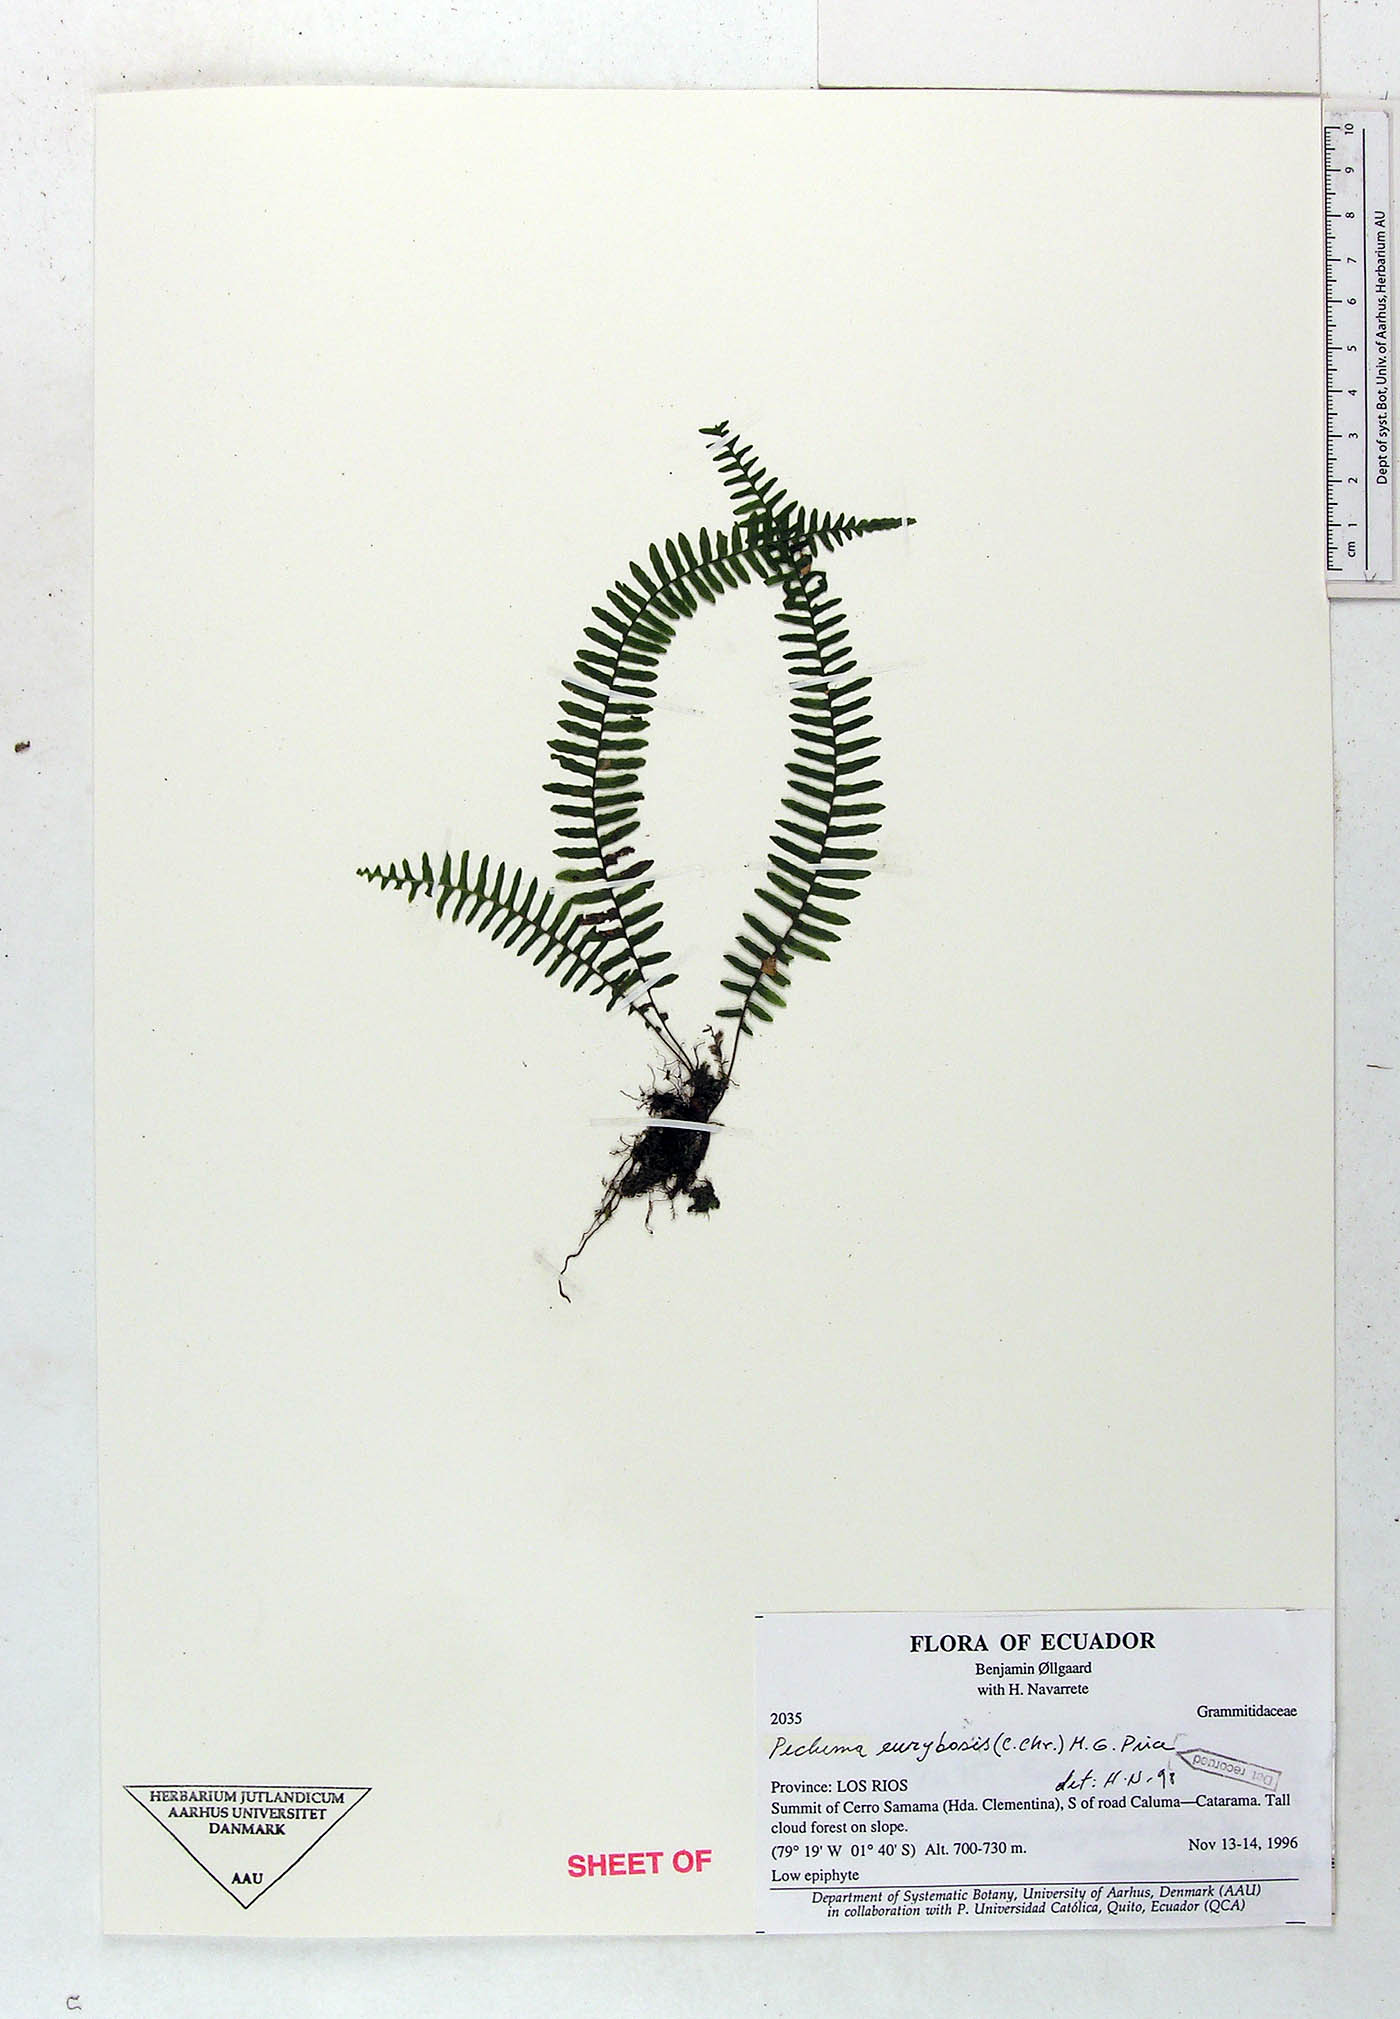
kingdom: Plantae
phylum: Tracheophyta
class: Polypodiopsida
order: Polypodiales
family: Polypodiaceae
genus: Pecluma
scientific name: Pecluma eurybasis
